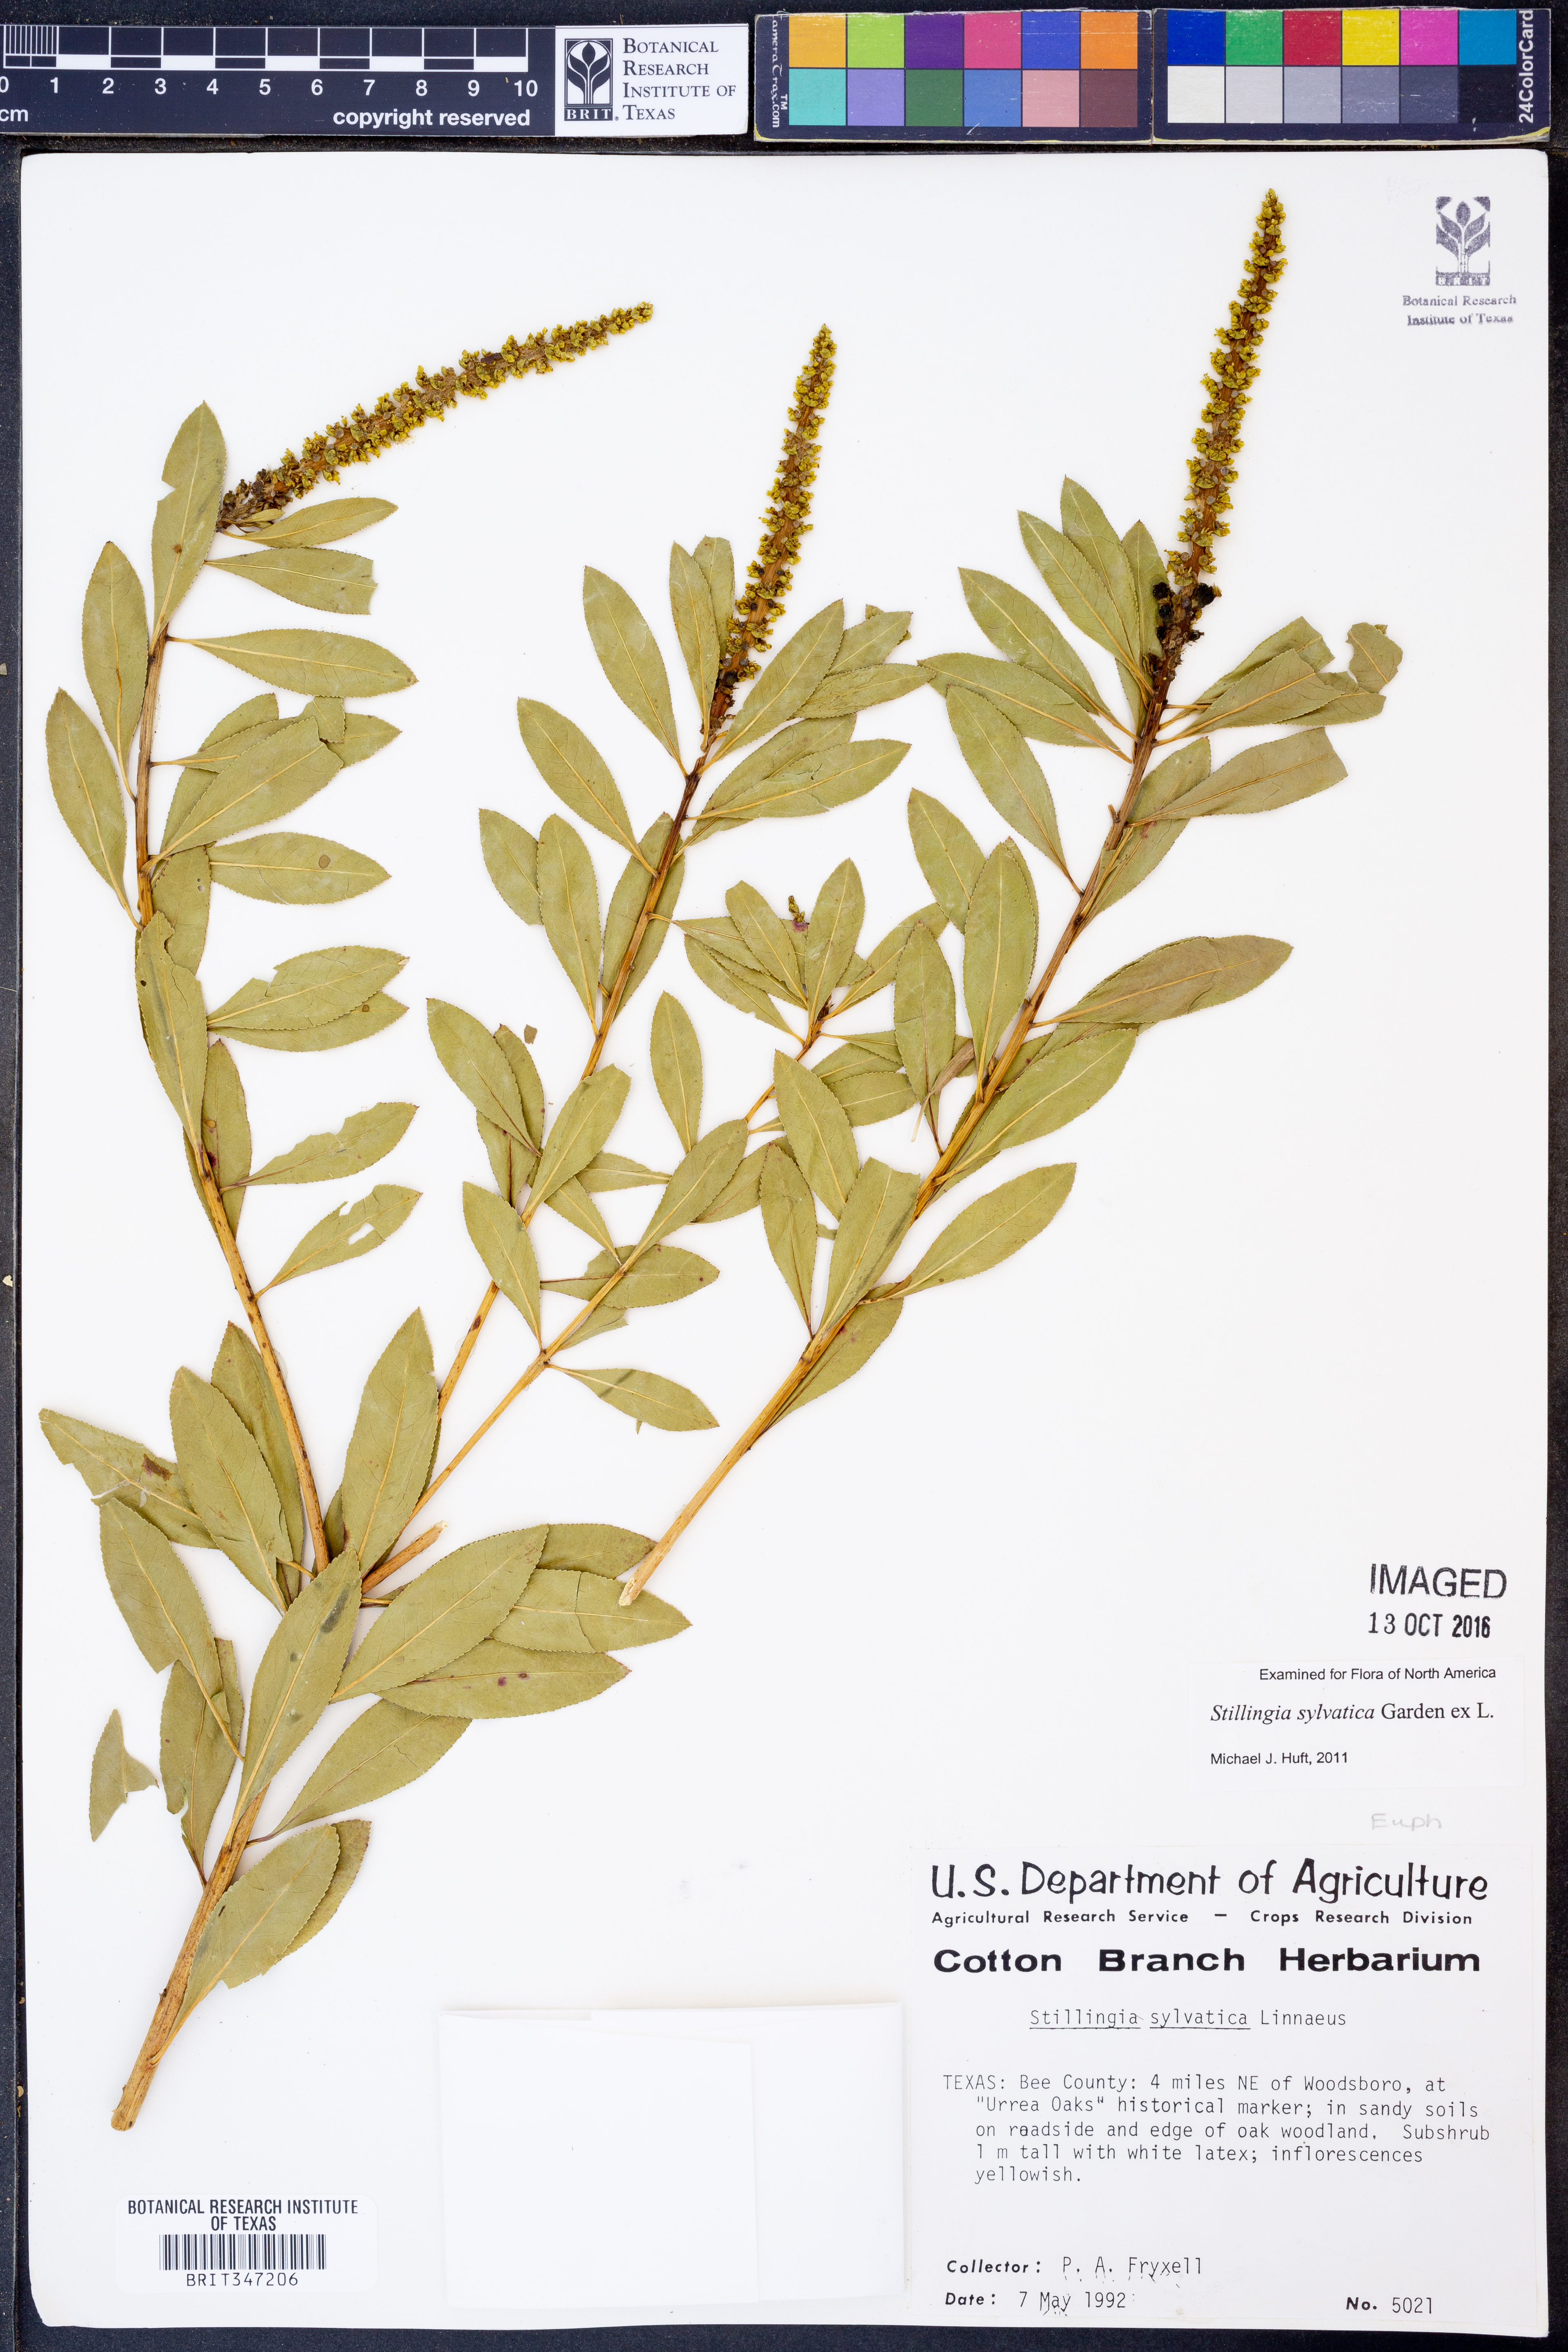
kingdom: Plantae
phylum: Tracheophyta
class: Magnoliopsida
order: Malpighiales
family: Euphorbiaceae
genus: Stillingia
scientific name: Stillingia sylvatica
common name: Queen's-delight
